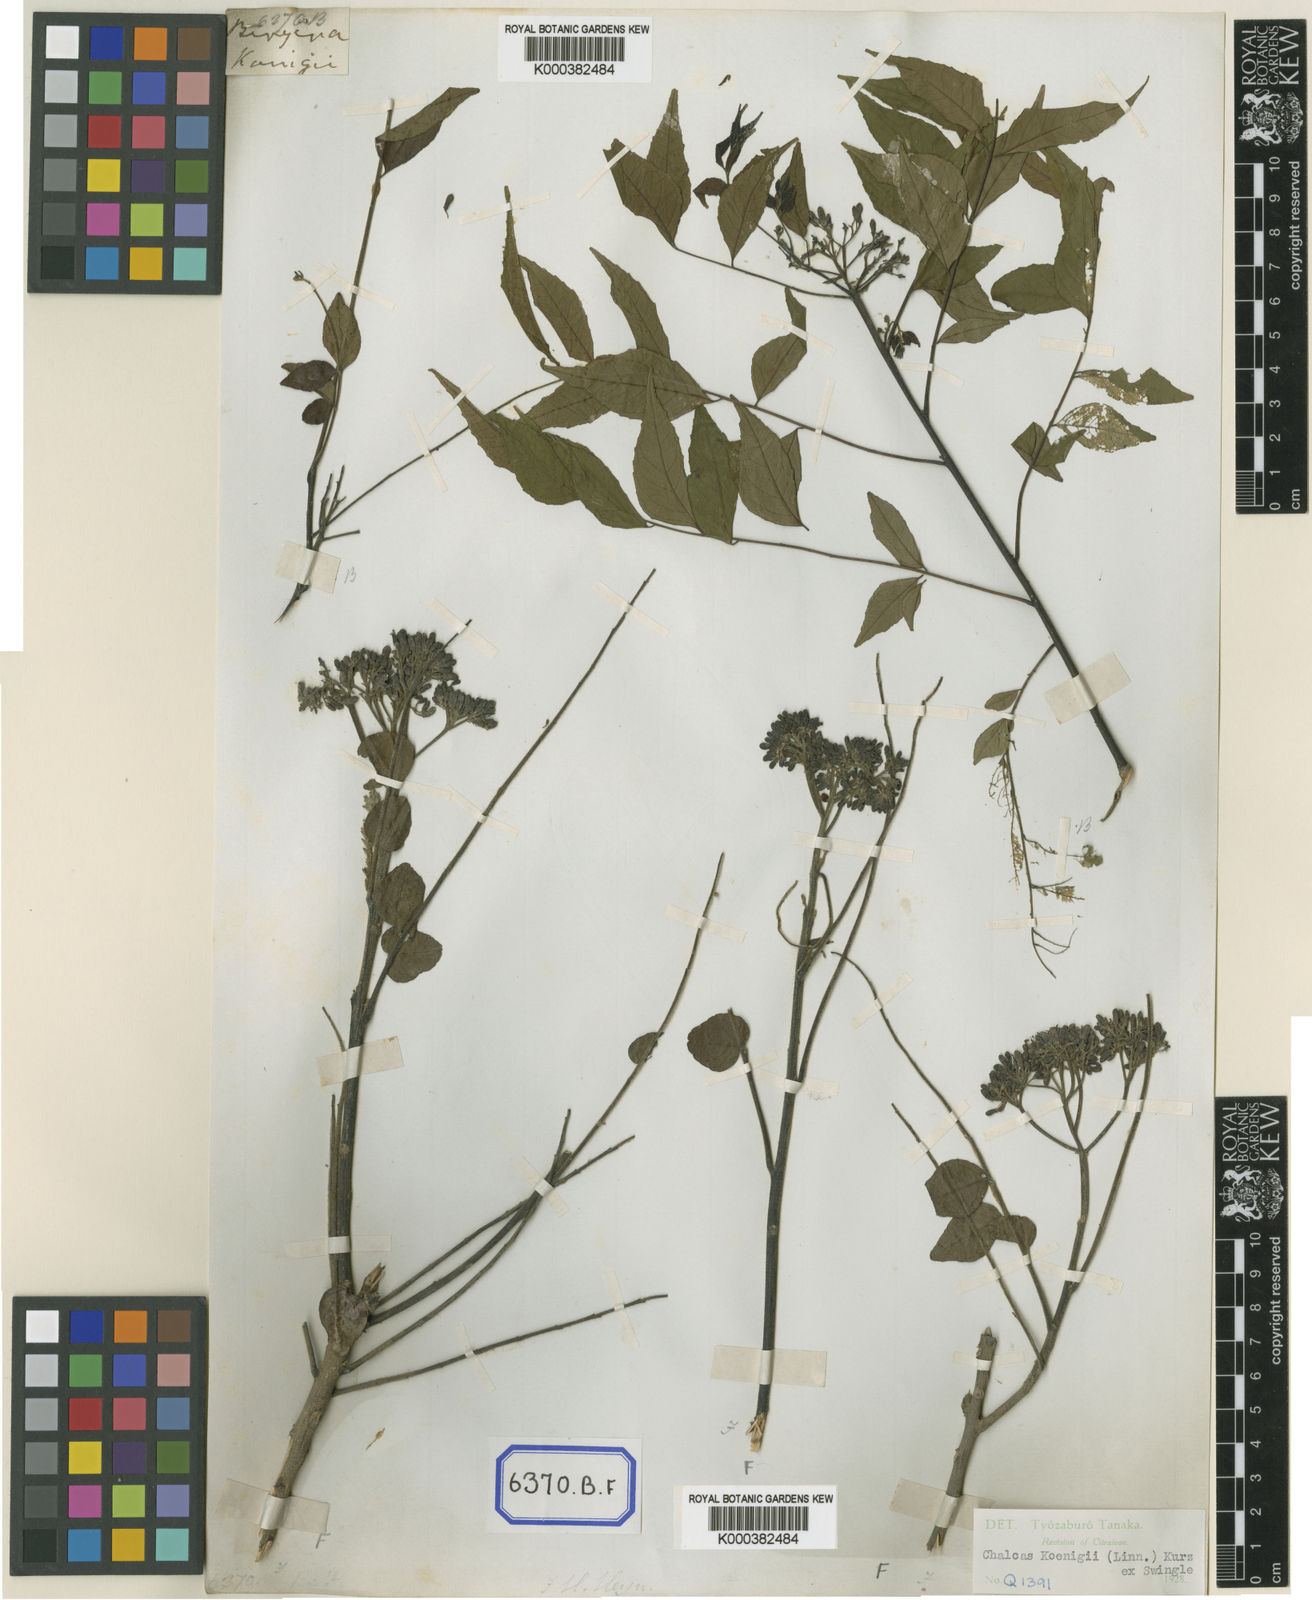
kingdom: Plantae
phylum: Tracheophyta
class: Magnoliopsida
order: Sapindales
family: Rutaceae
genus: Murraya
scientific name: Murraya koenigii
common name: Curry-plant
